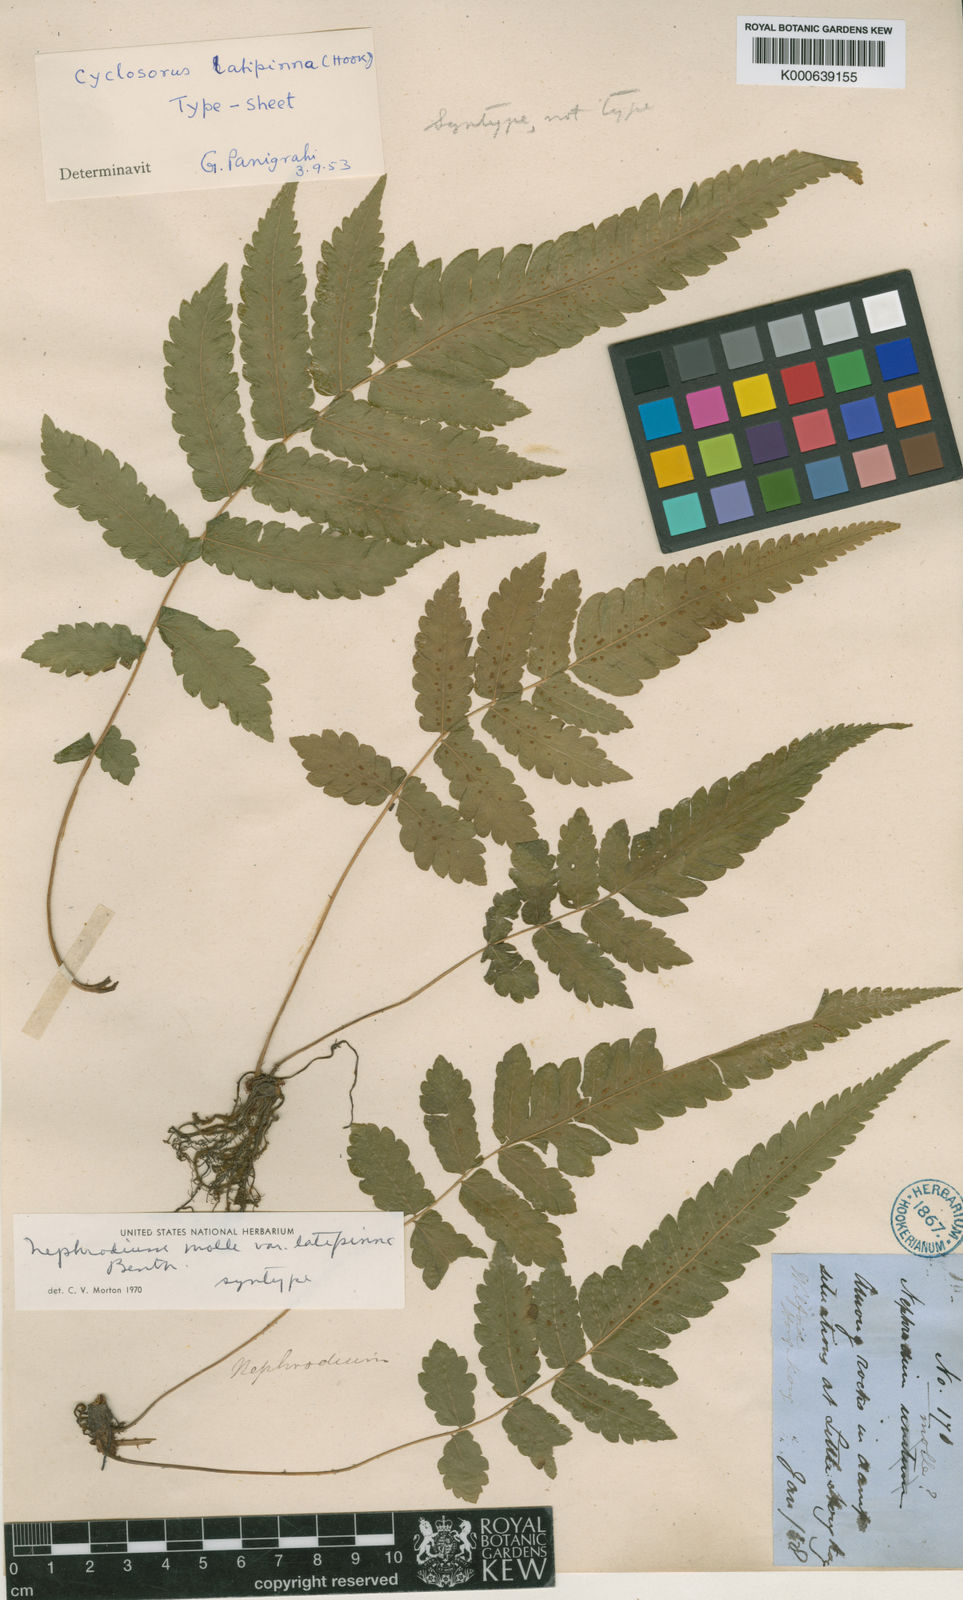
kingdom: Plantae
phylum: Tracheophyta
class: Polypodiopsida
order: Polypodiales
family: Thelypteridaceae
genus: Christella
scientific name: Christella subpubescens
